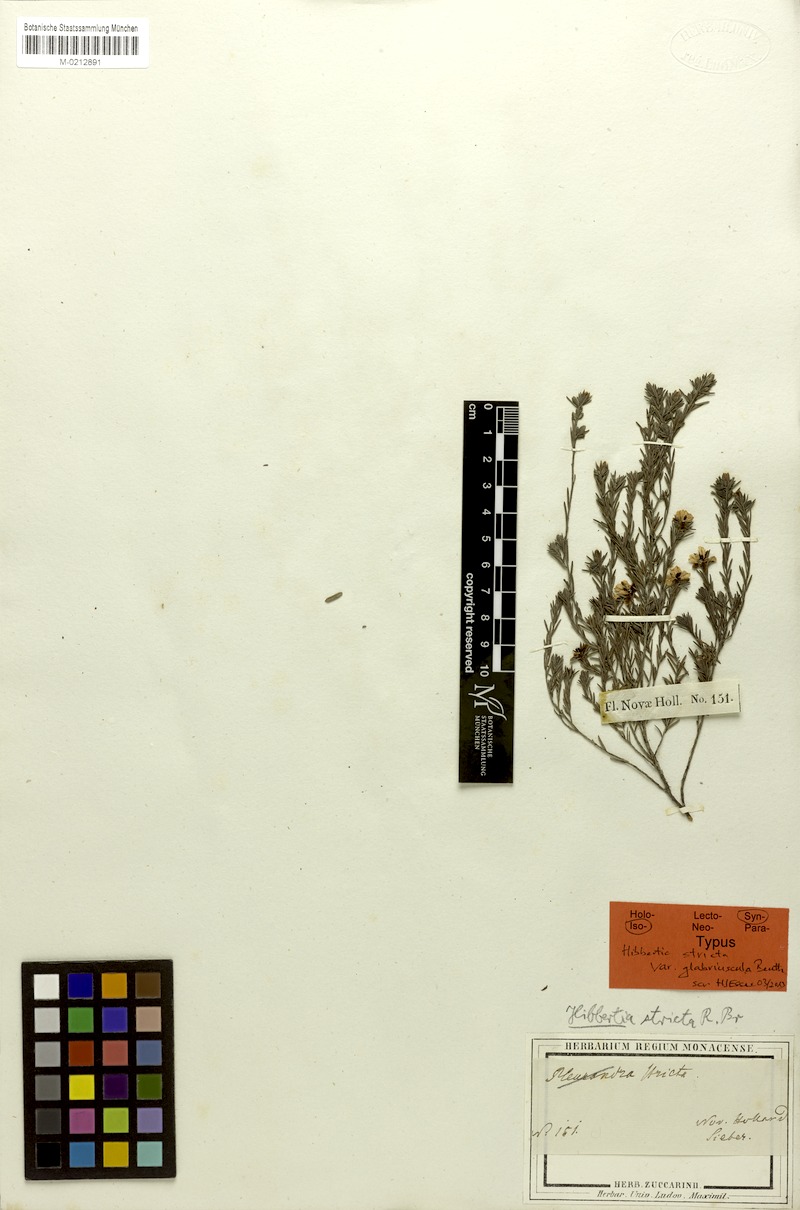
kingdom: Plantae
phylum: Tracheophyta
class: Magnoliopsida
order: Dilleniales
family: Dilleniaceae
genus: Hibbertia
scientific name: Hibbertia stricta
